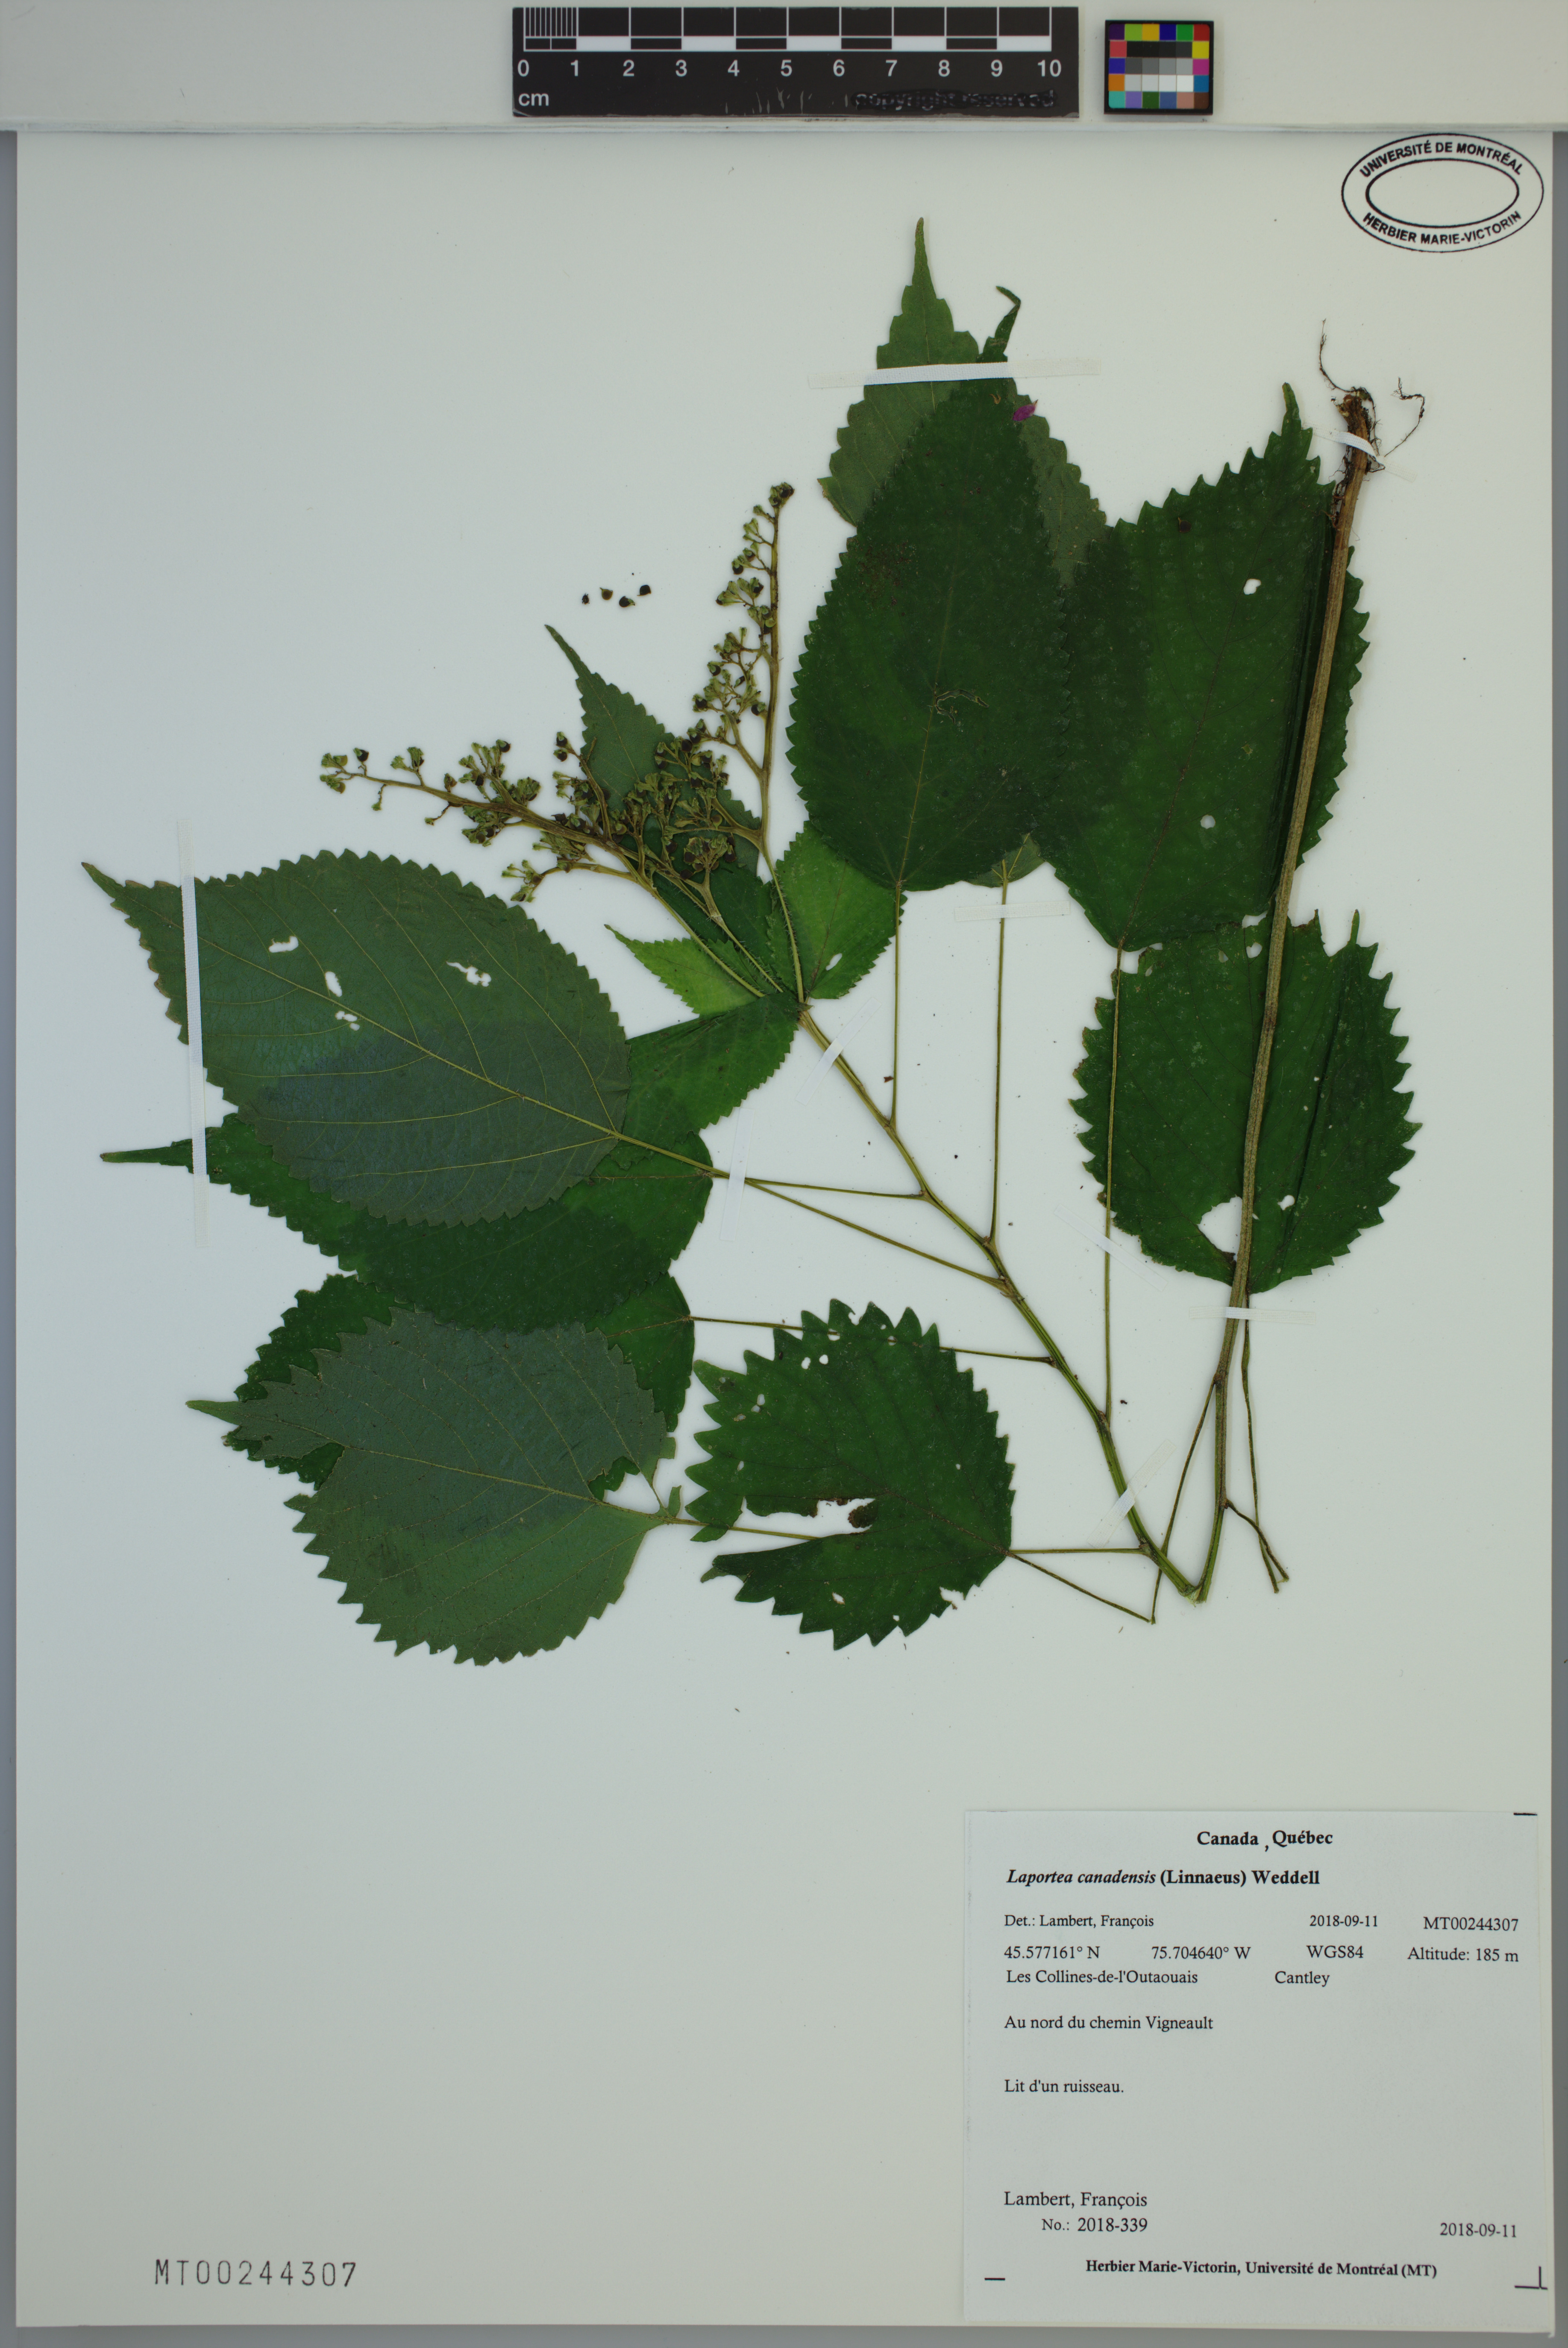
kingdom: Plantae
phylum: Tracheophyta
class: Magnoliopsida
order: Rosales
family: Urticaceae
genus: Laportea
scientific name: Laportea canadensis
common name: Canada nettle
